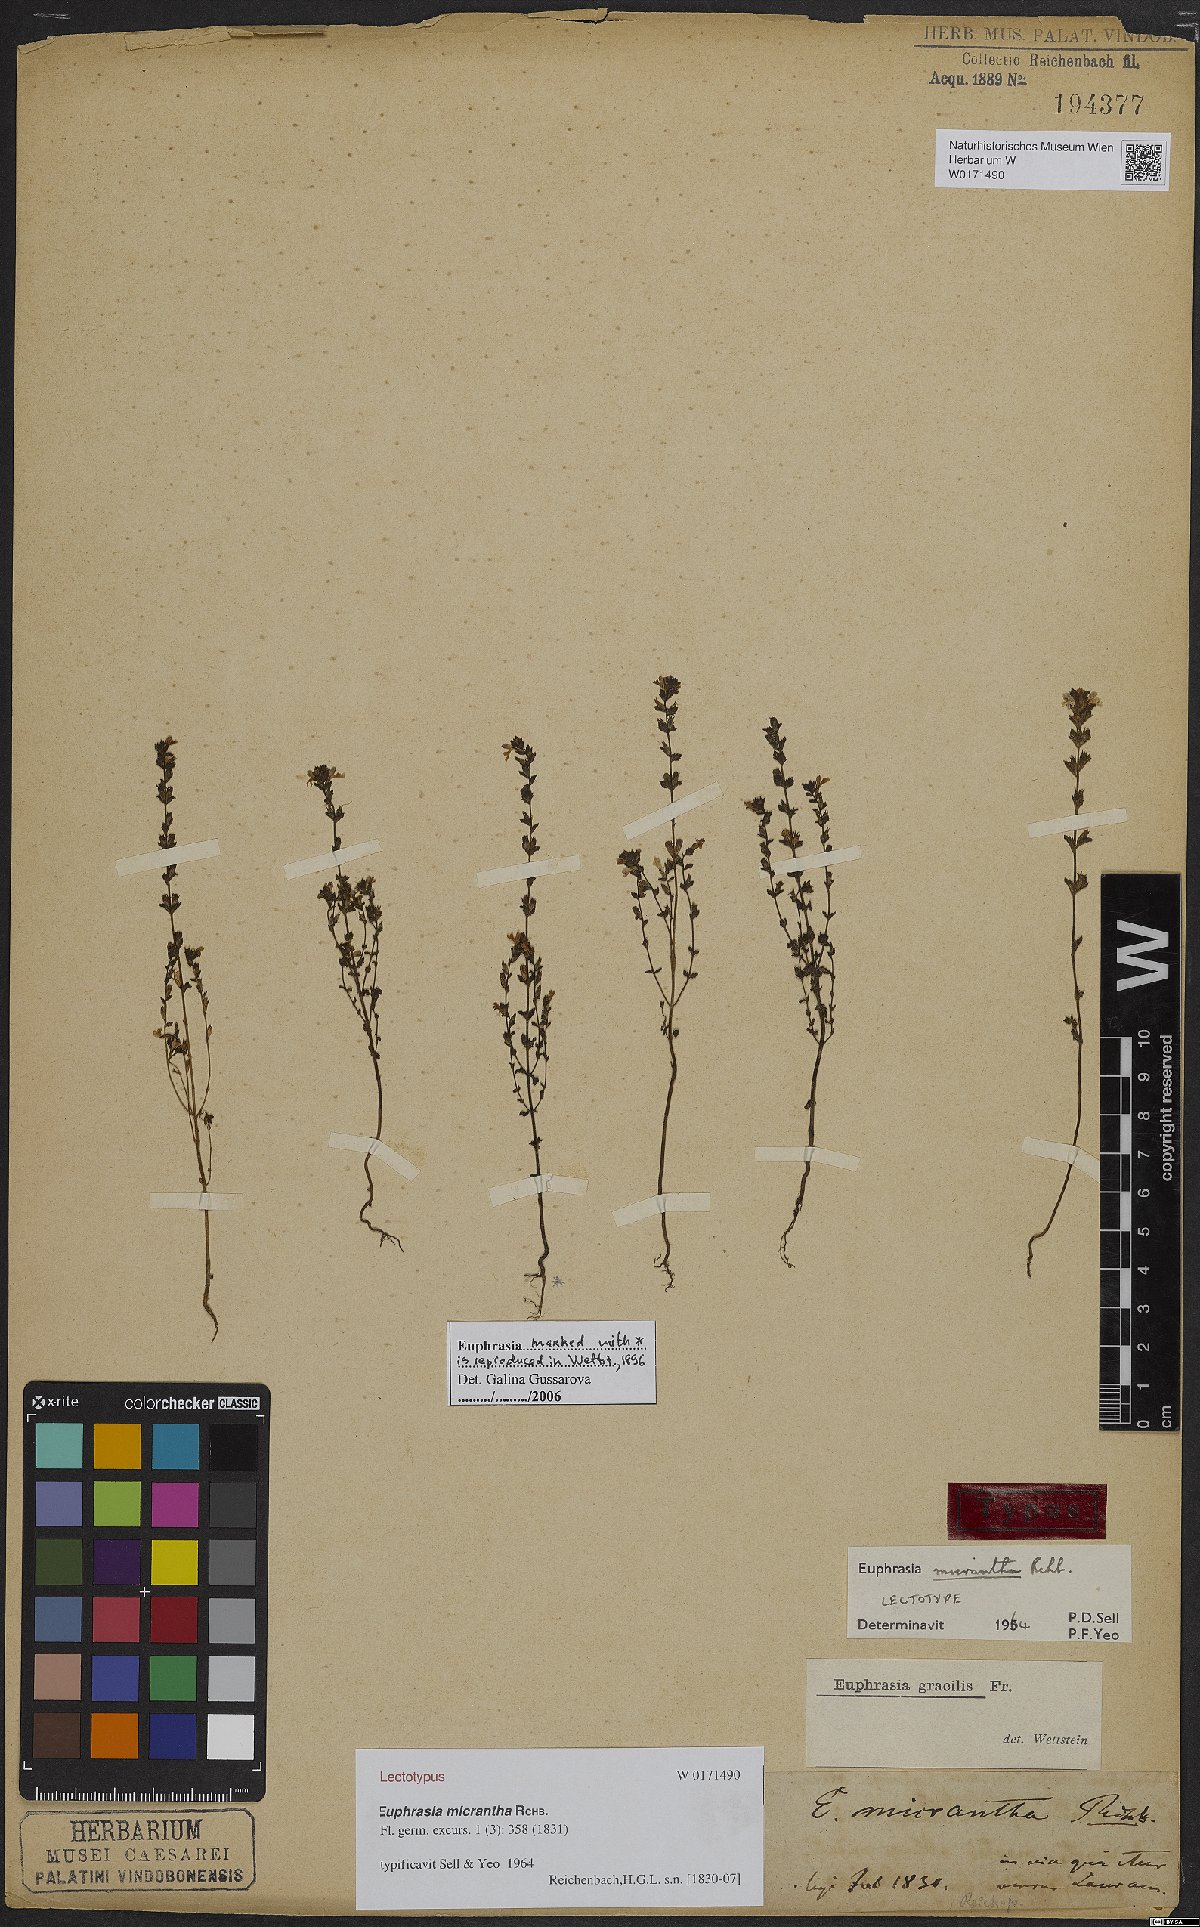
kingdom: Plantae
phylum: Tracheophyta
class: Magnoliopsida
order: Lamiales
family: Orobanchaceae
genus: Euphrasia
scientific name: Euphrasia micrantha
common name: Northern eyebright
